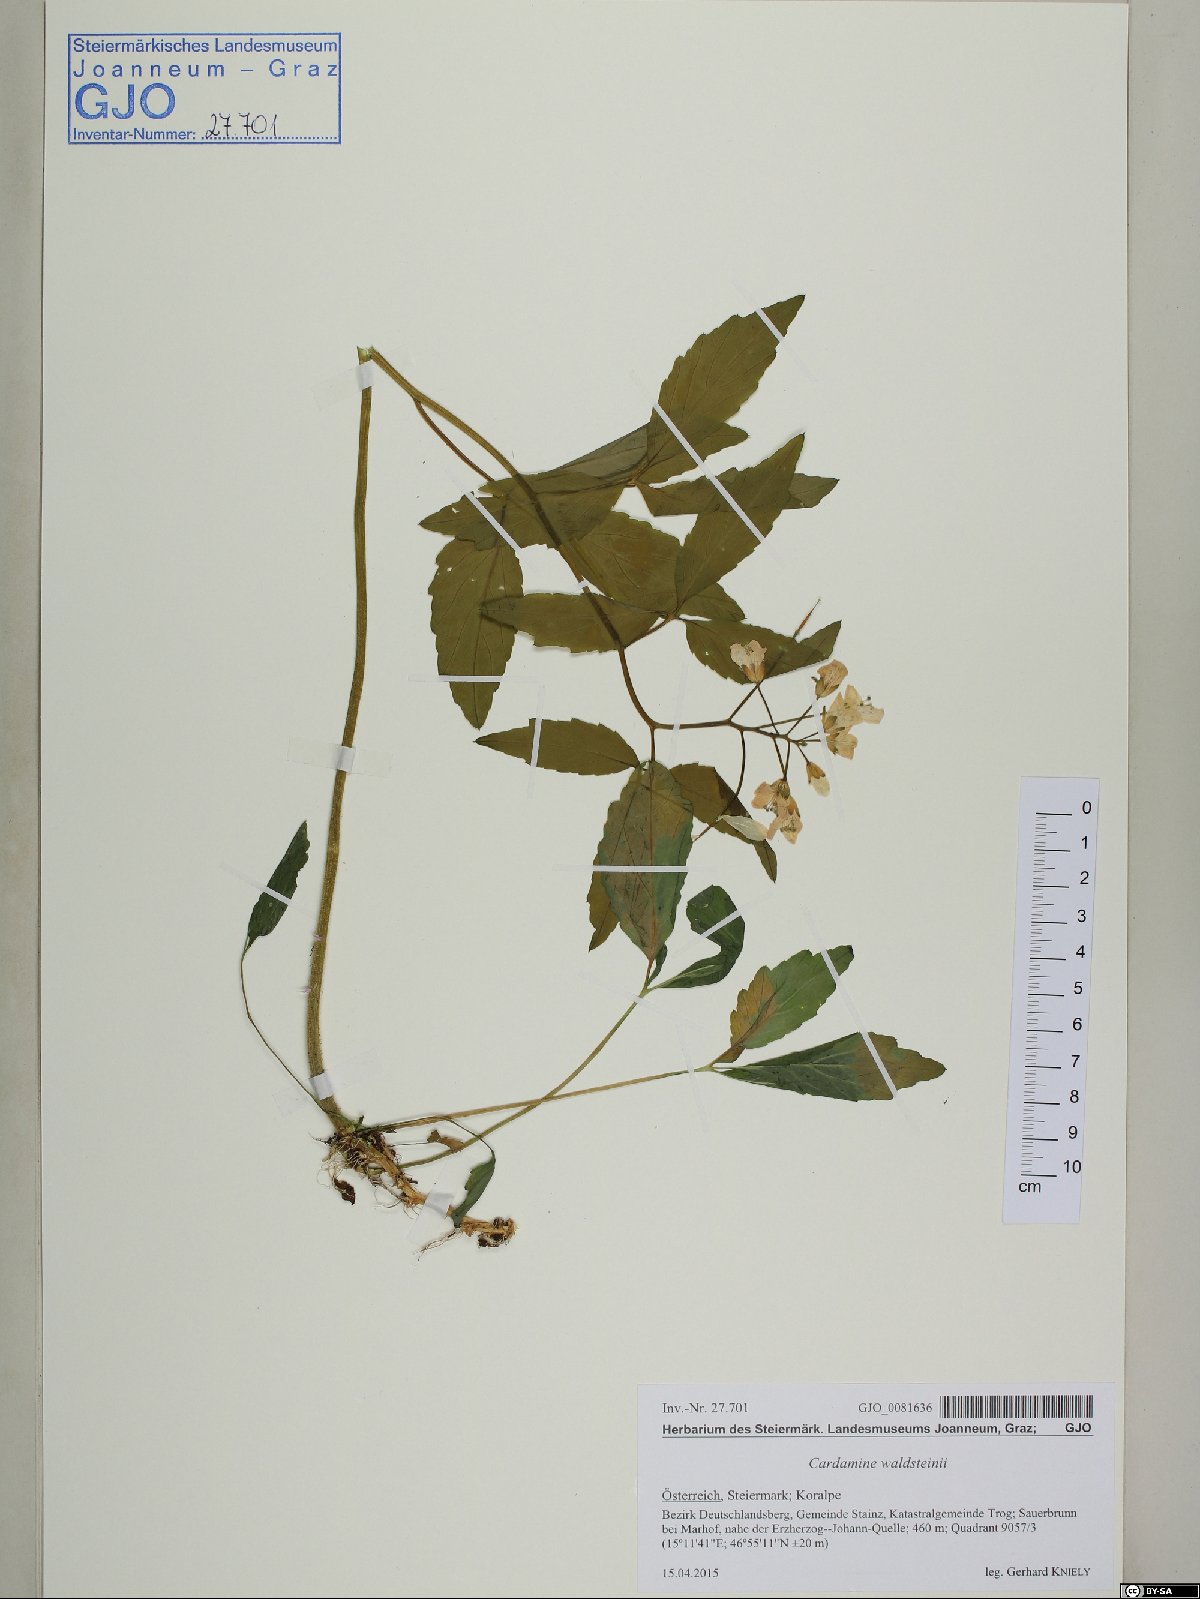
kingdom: Plantae
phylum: Tracheophyta
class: Magnoliopsida
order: Brassicales
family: Brassicaceae
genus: Cardamine
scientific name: Cardamine waldsteinii
